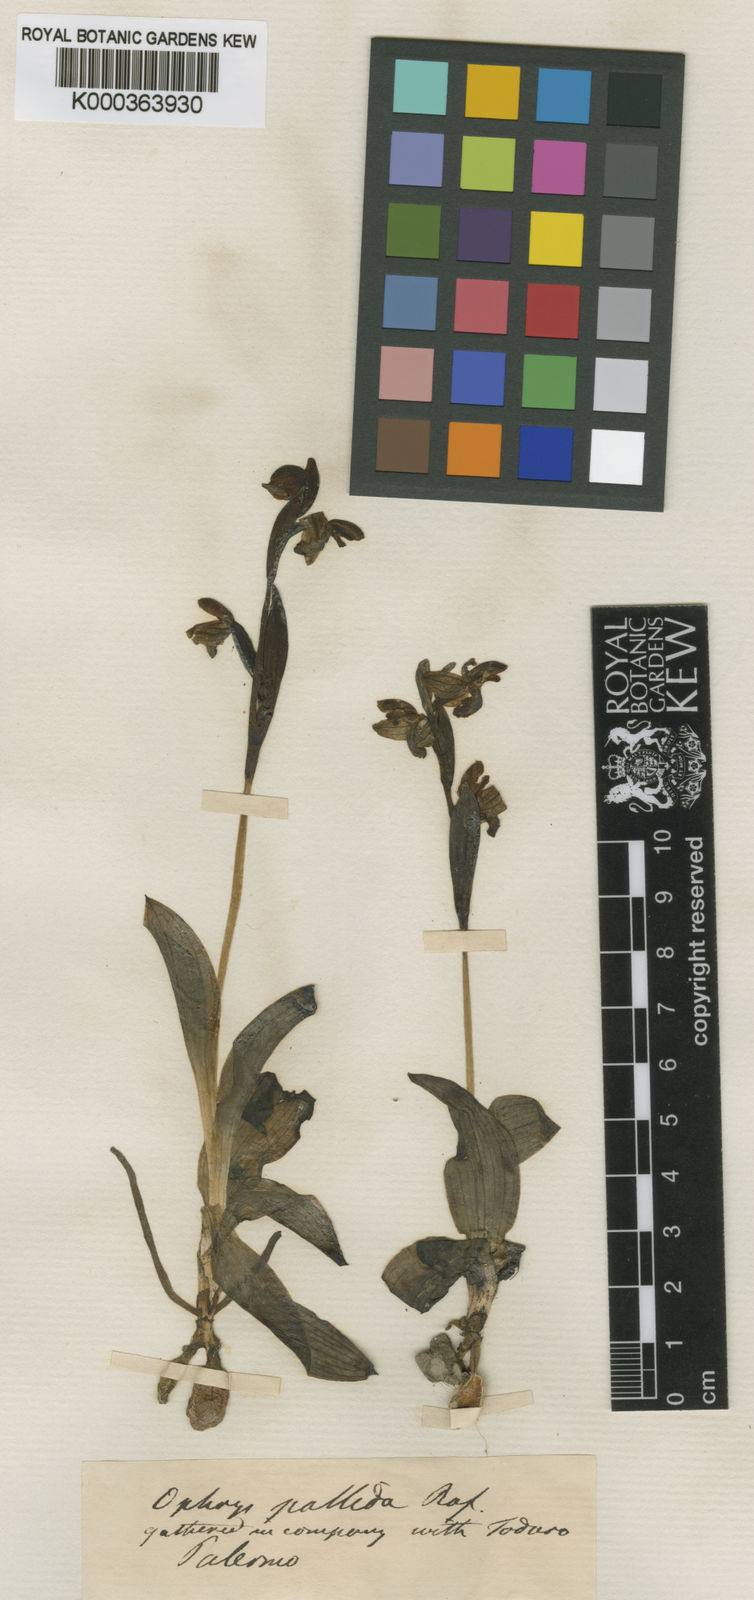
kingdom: Plantae
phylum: Tracheophyta
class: Liliopsida
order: Asparagales
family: Orchidaceae
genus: Ophrys
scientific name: Ophrys fusca
